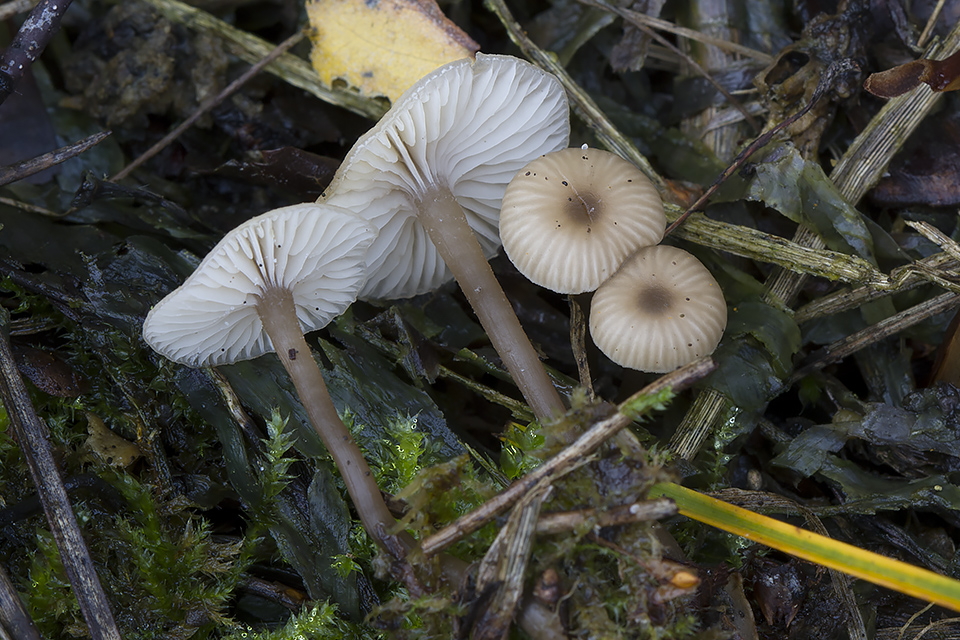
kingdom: Fungi
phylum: Basidiomycota
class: Agaricomycetes
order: Agaricales
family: Tricholomataceae
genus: Gamundia
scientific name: Gamundia striatula
